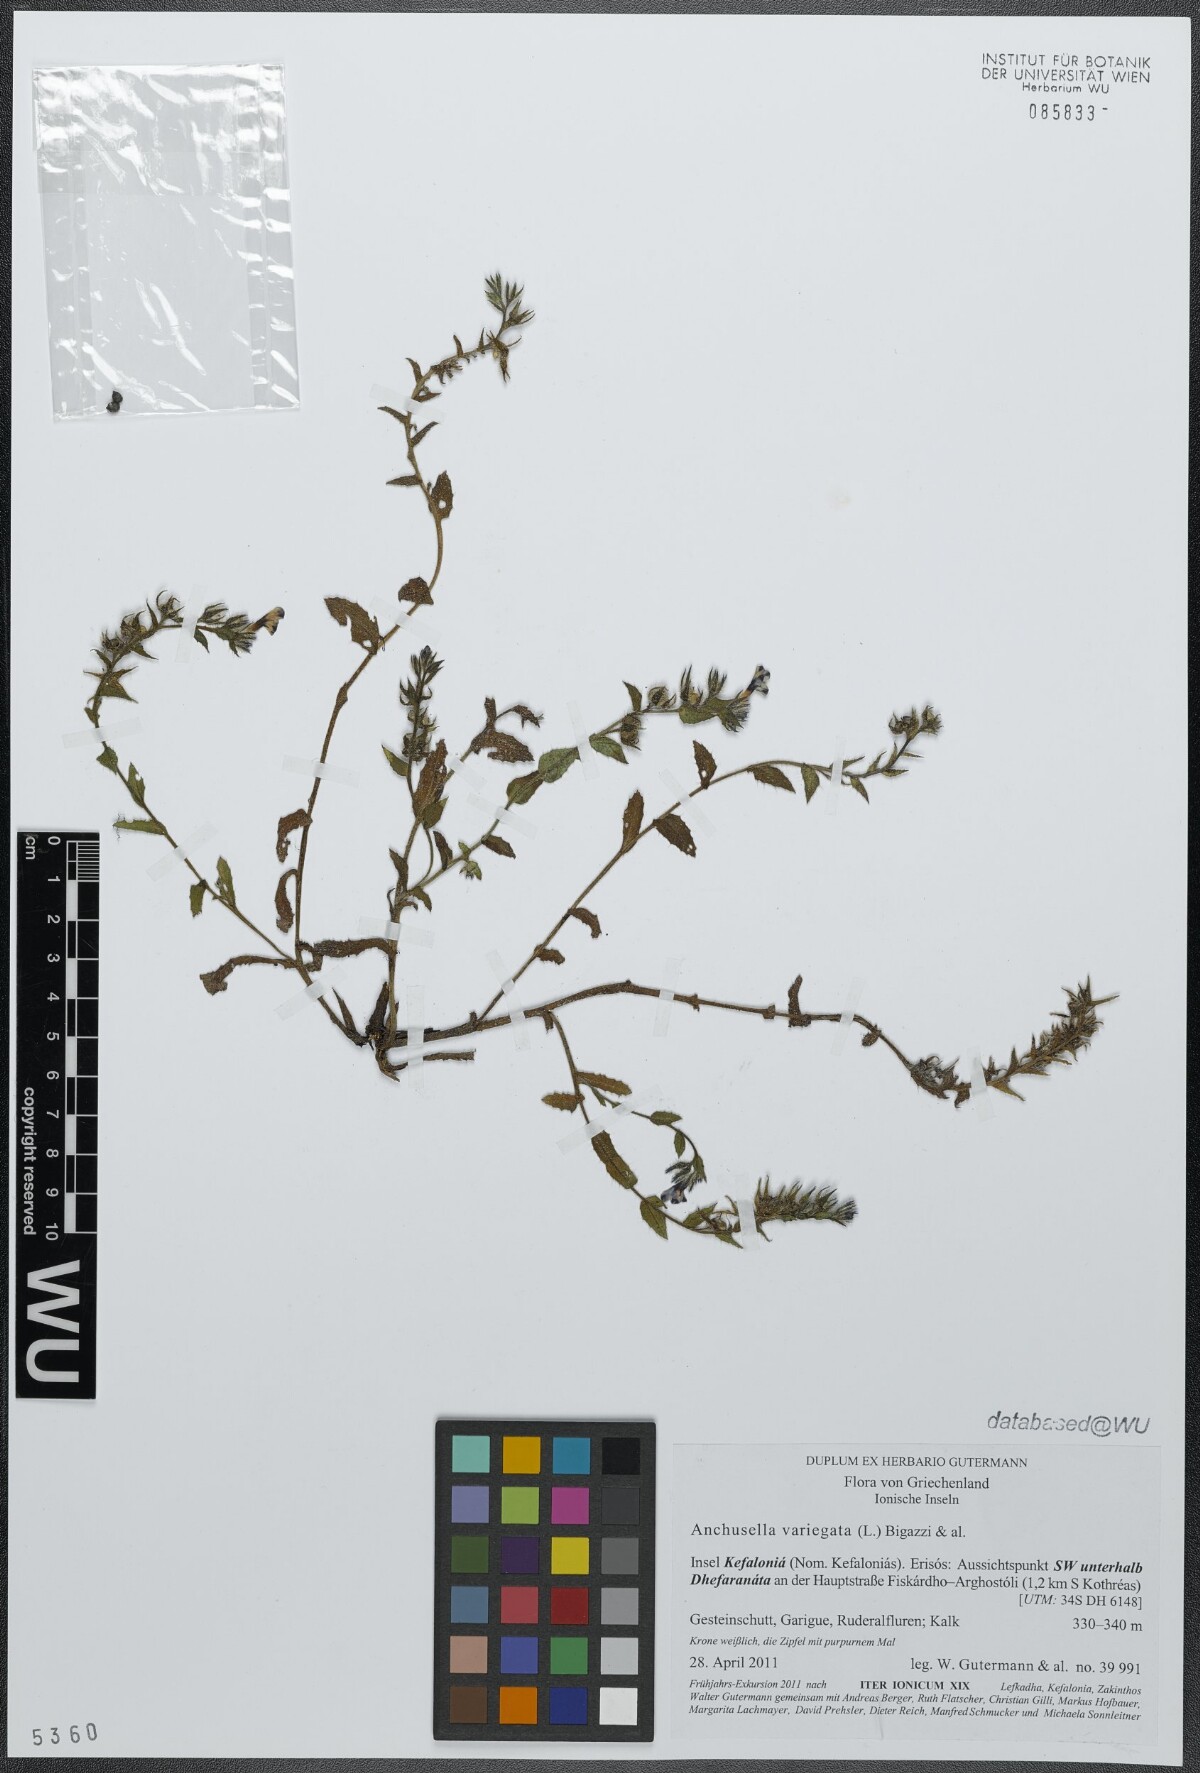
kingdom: Plantae
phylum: Tracheophyta
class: Magnoliopsida
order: Boraginales
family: Boraginaceae
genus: Anchusella
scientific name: Anchusella variegata
